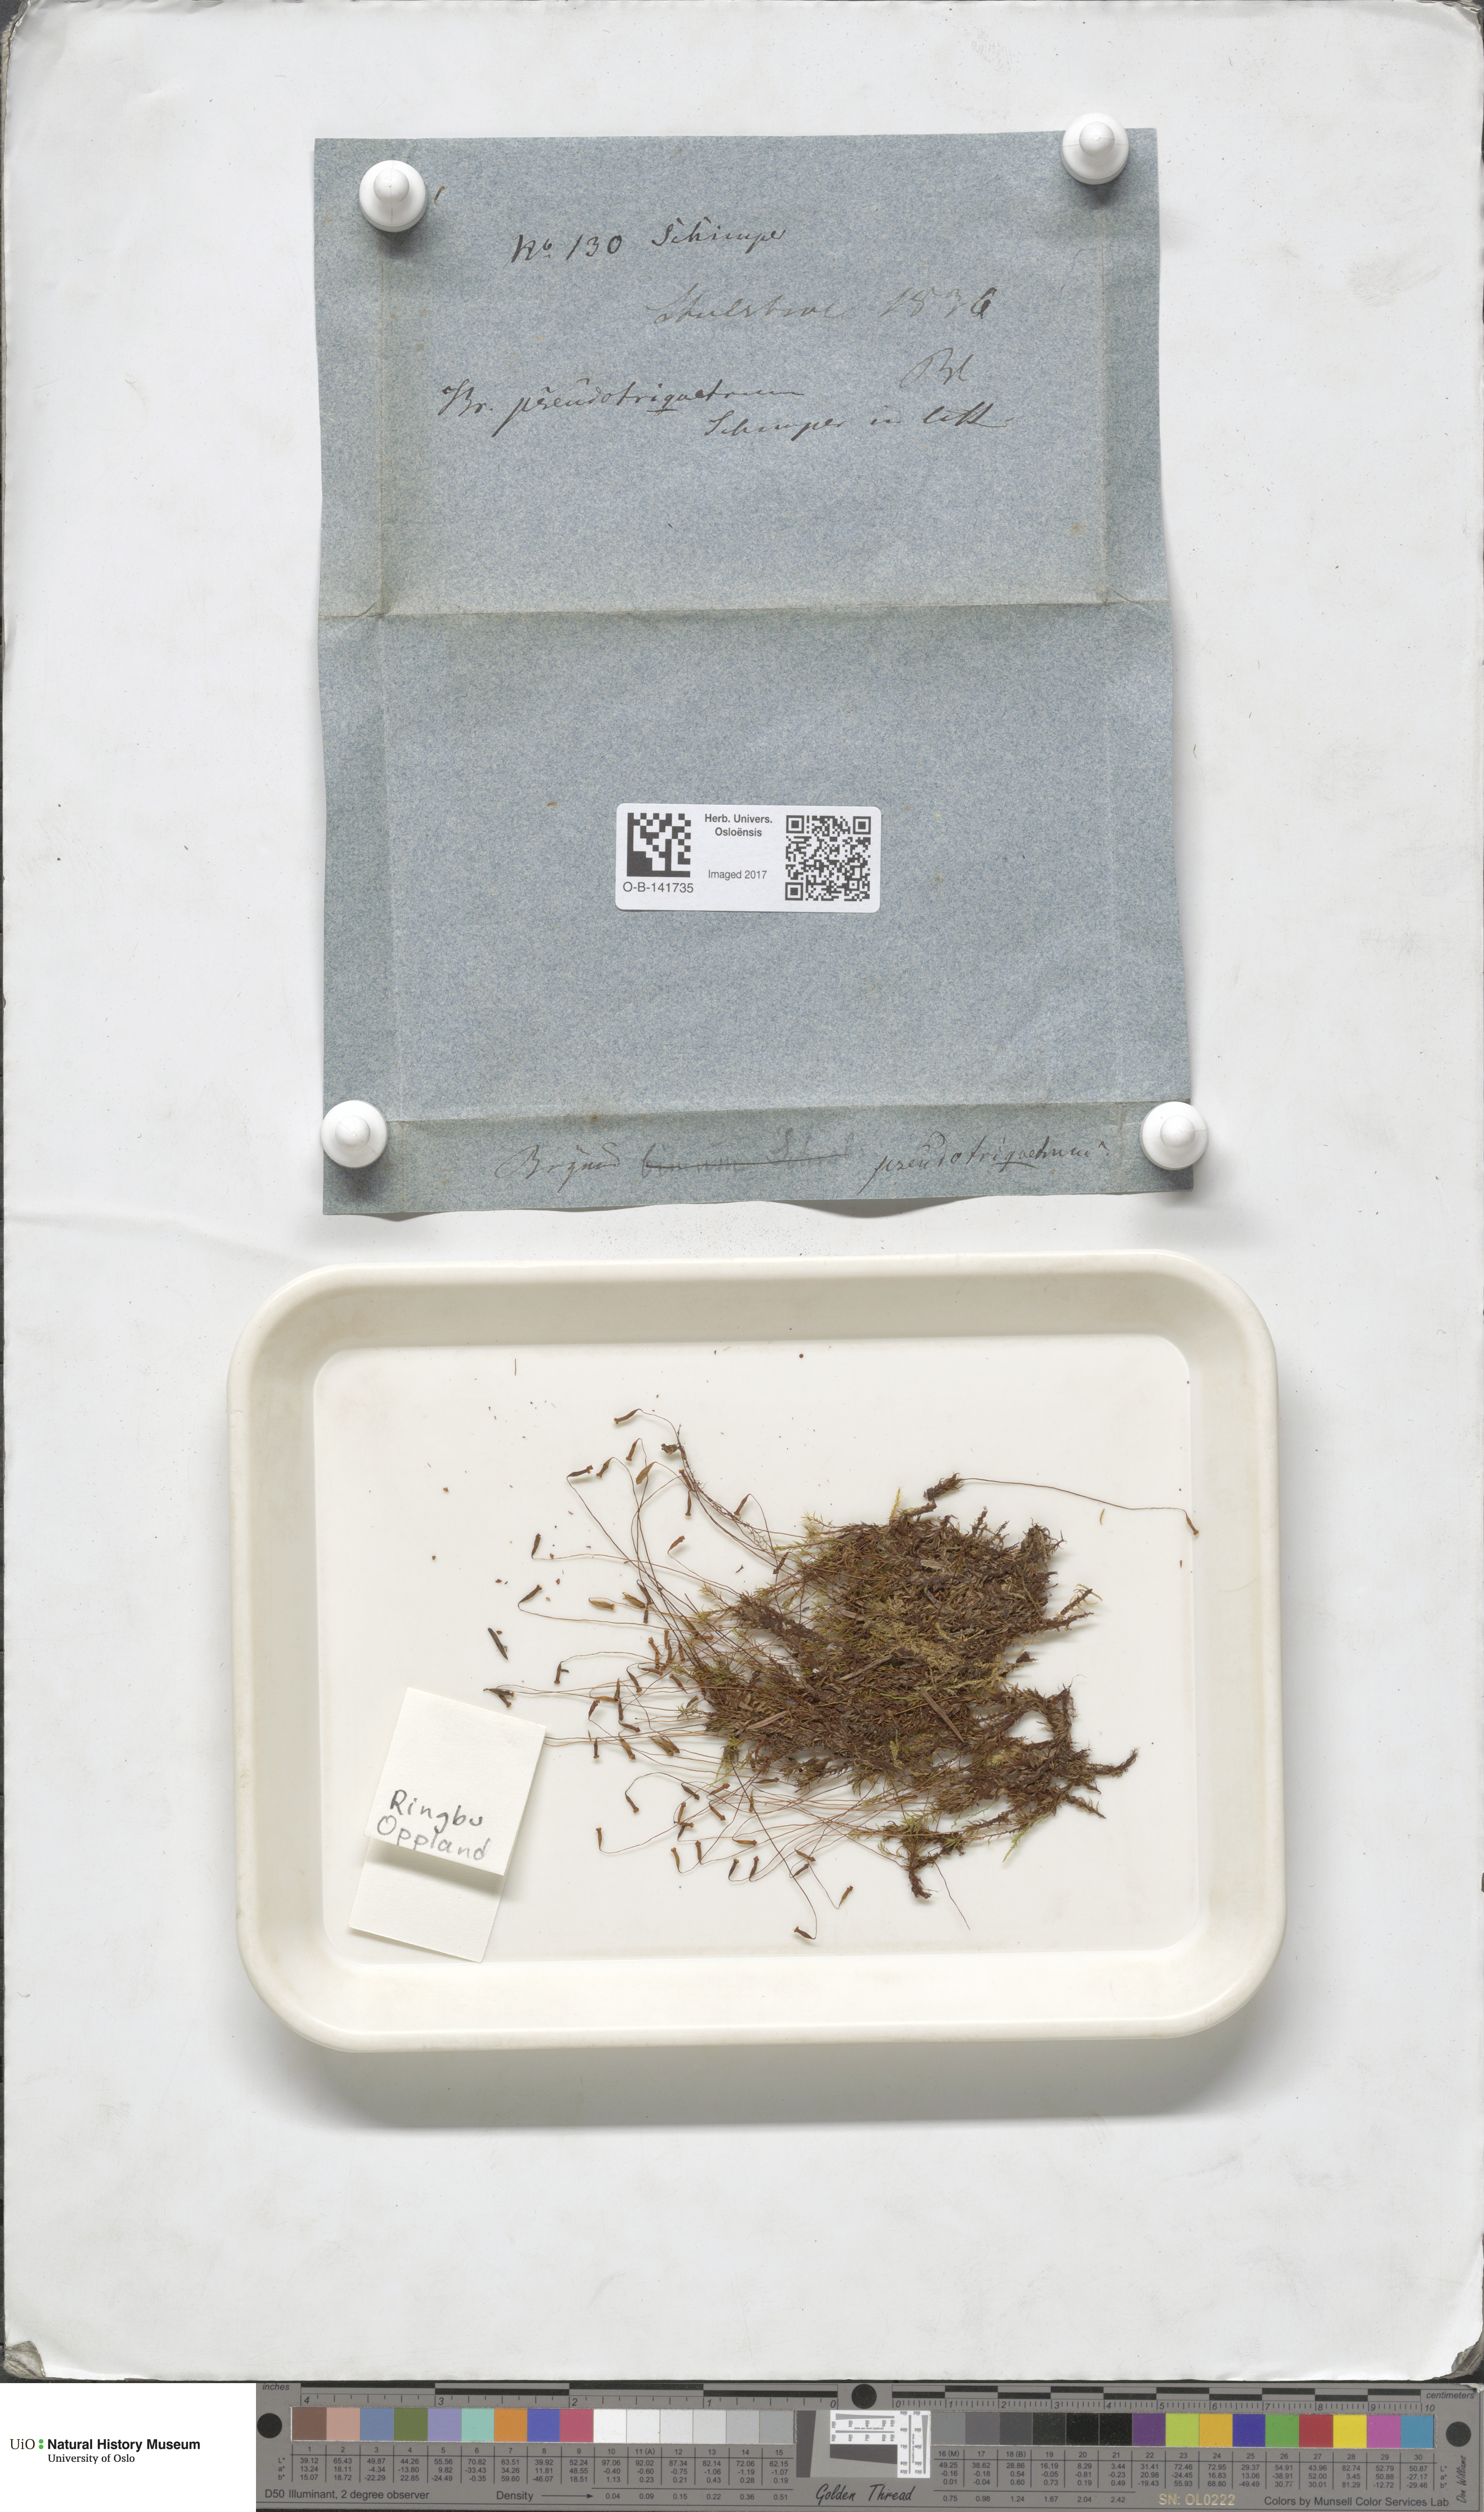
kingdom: Plantae
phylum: Bryophyta
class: Bryopsida
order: Bryales
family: Bryaceae
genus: Ptychostomum
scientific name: Ptychostomum pseudotriquetrum
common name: Long-leaved thread moss
